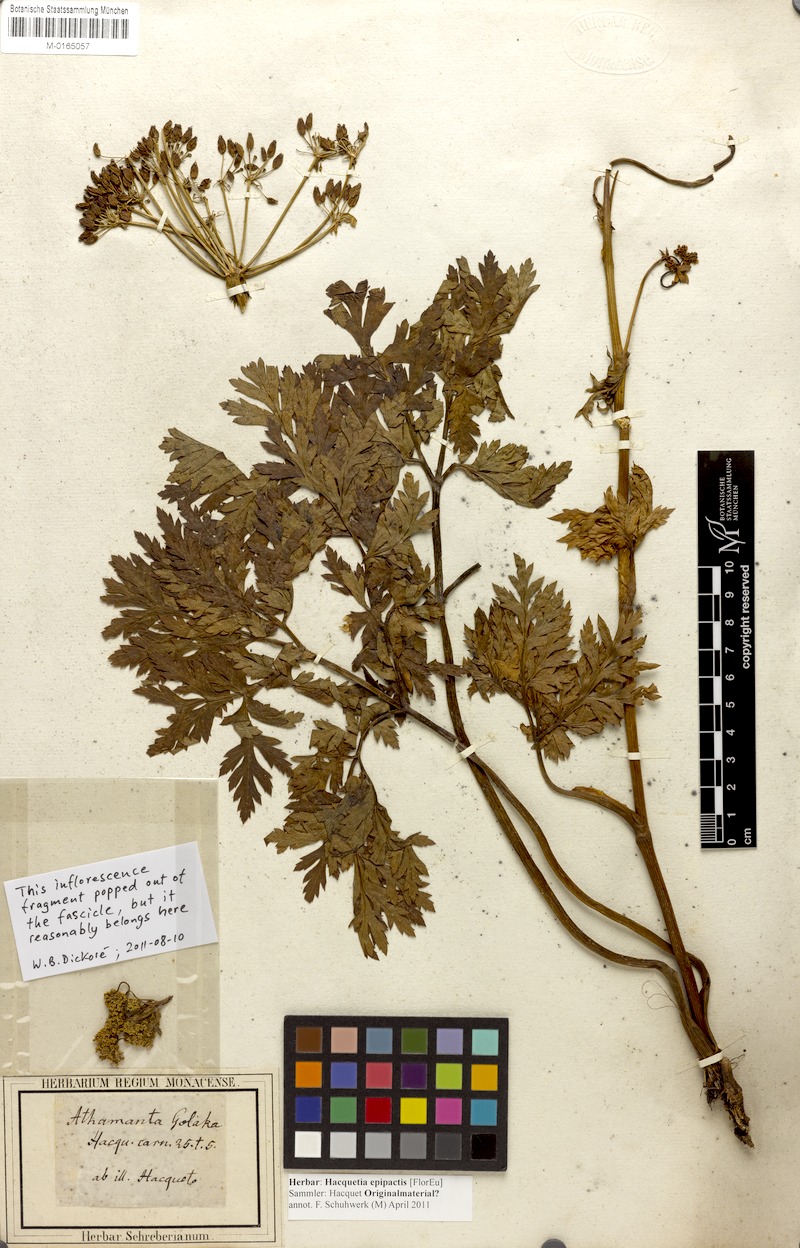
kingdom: Plantae
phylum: Tracheophyta
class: Magnoliopsida
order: Apiales
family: Apiaceae
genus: Grafia
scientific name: Grafia golaka
